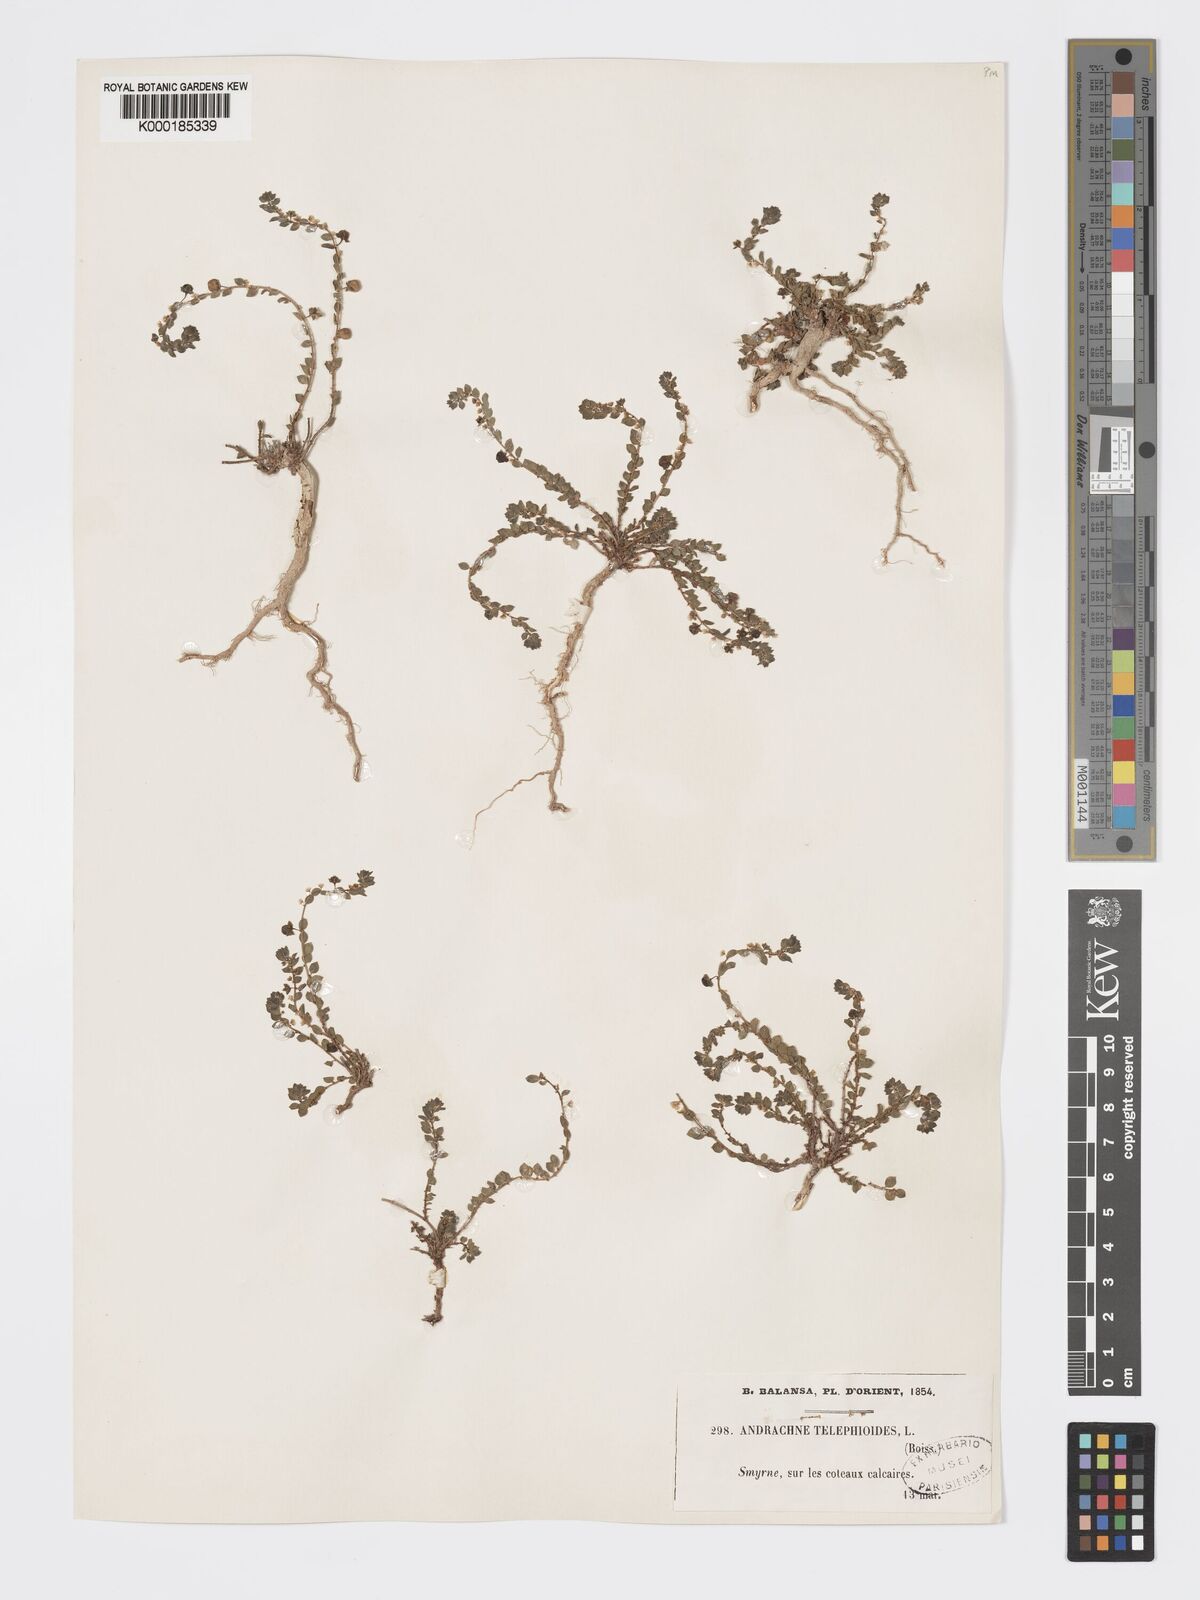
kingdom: Plantae
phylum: Tracheophyta
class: Magnoliopsida
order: Malpighiales
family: Phyllanthaceae
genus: Andrachne
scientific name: Andrachne telephioides
